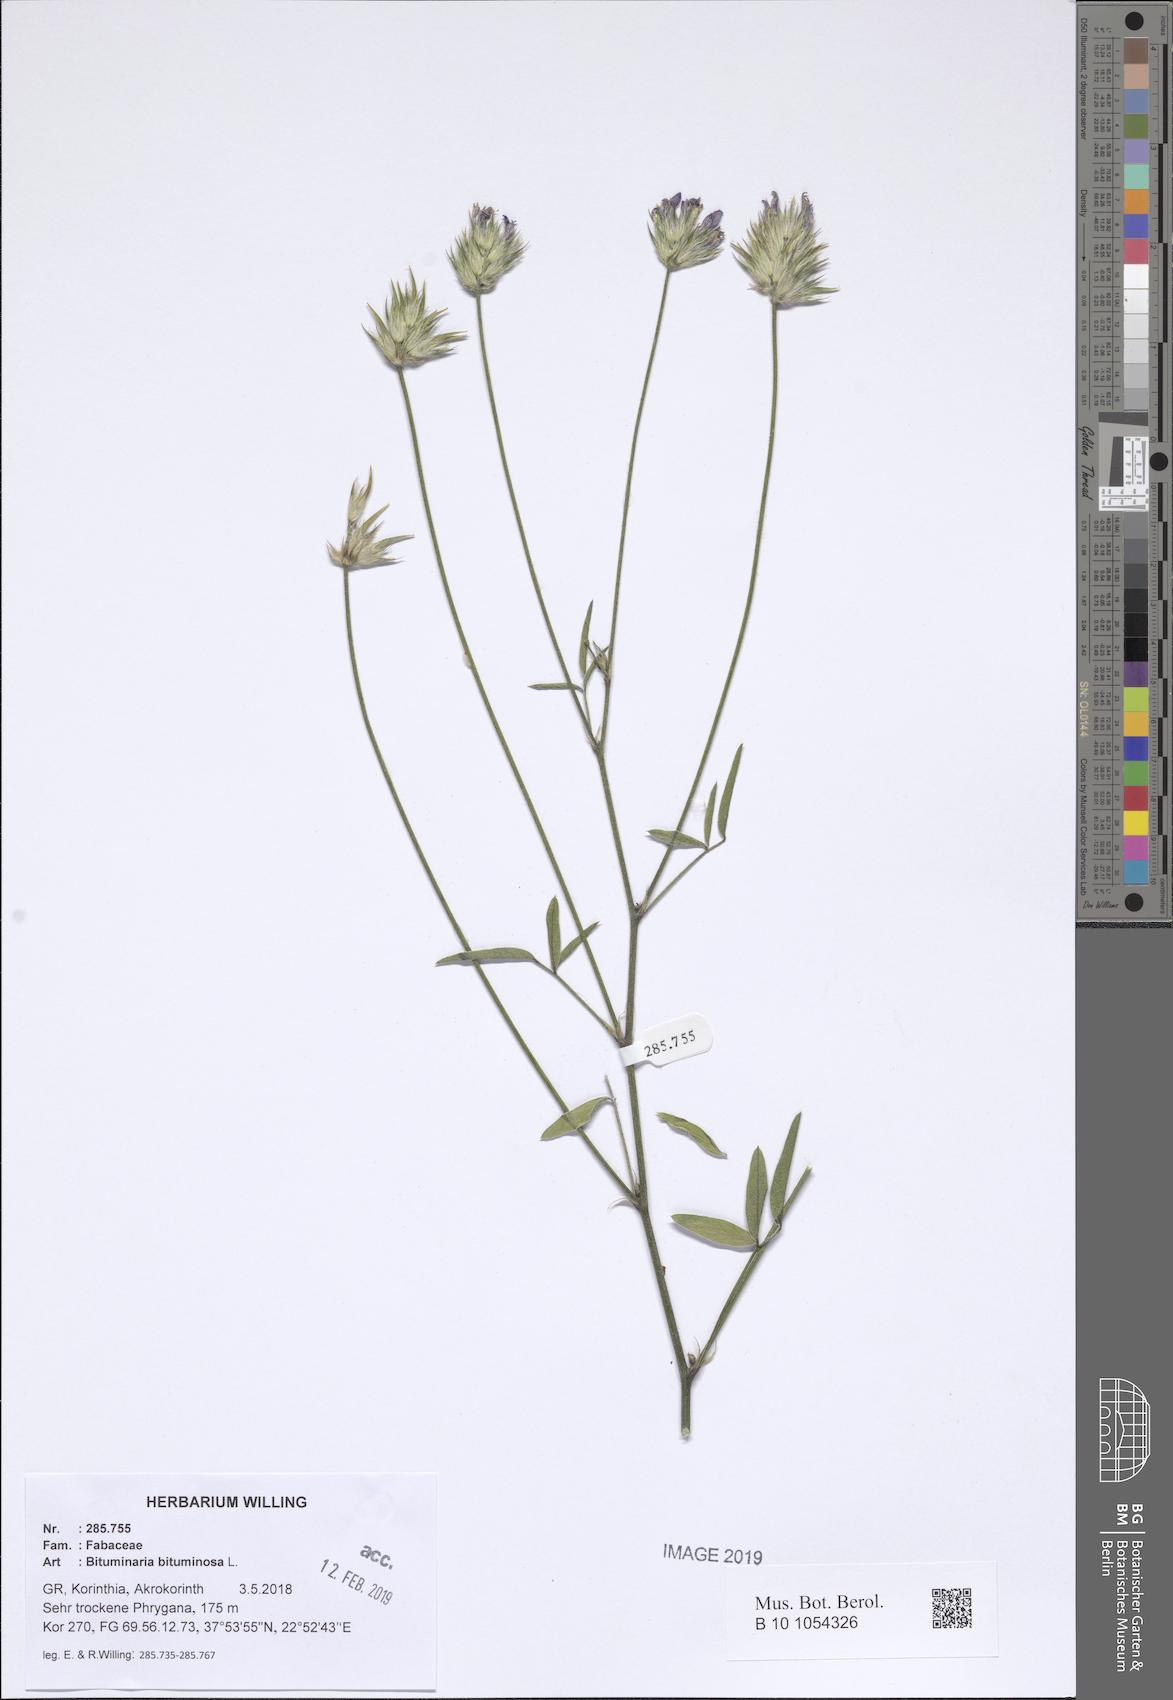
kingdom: Plantae
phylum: Tracheophyta
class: Magnoliopsida
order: Fabales
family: Fabaceae
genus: Bituminaria
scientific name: Bituminaria bituminosa
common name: Arabian pea
